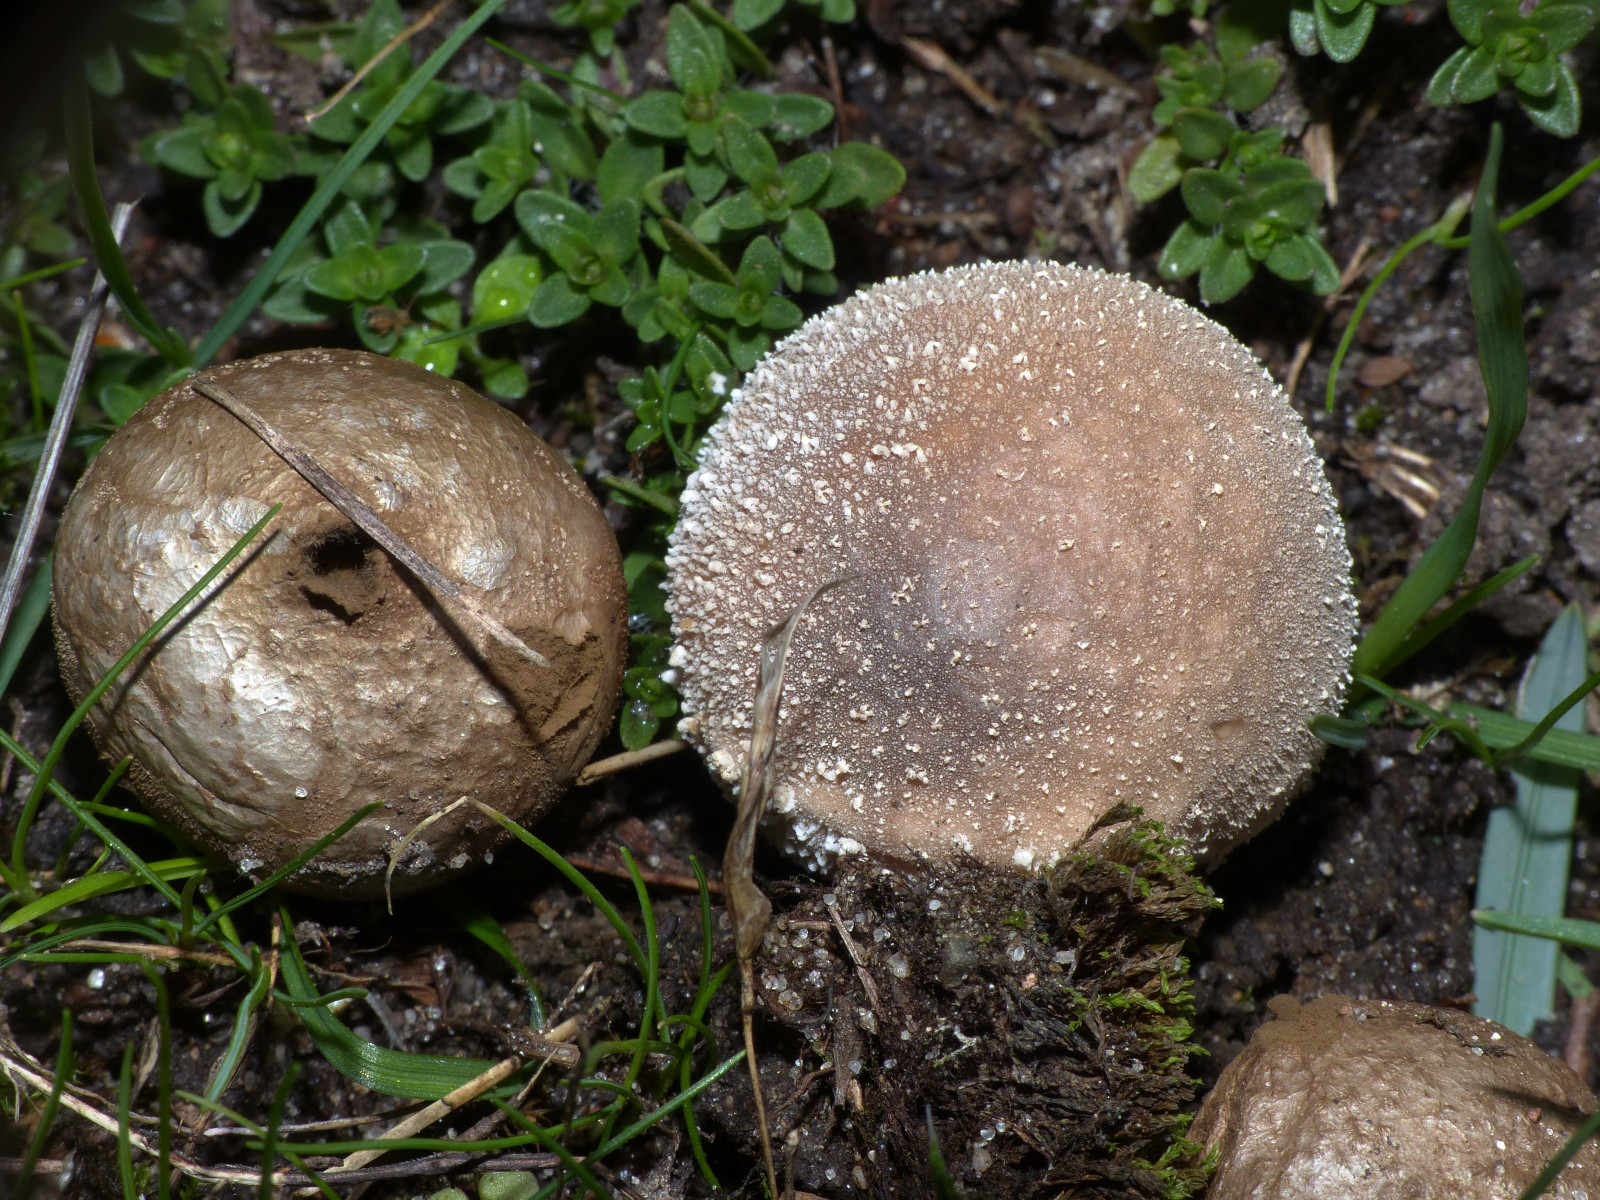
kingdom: Fungi
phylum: Basidiomycota
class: Agaricomycetes
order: Agaricales
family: Lycoperdaceae
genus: Lycoperdon
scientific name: Lycoperdon lividum
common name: mark-støvbold
